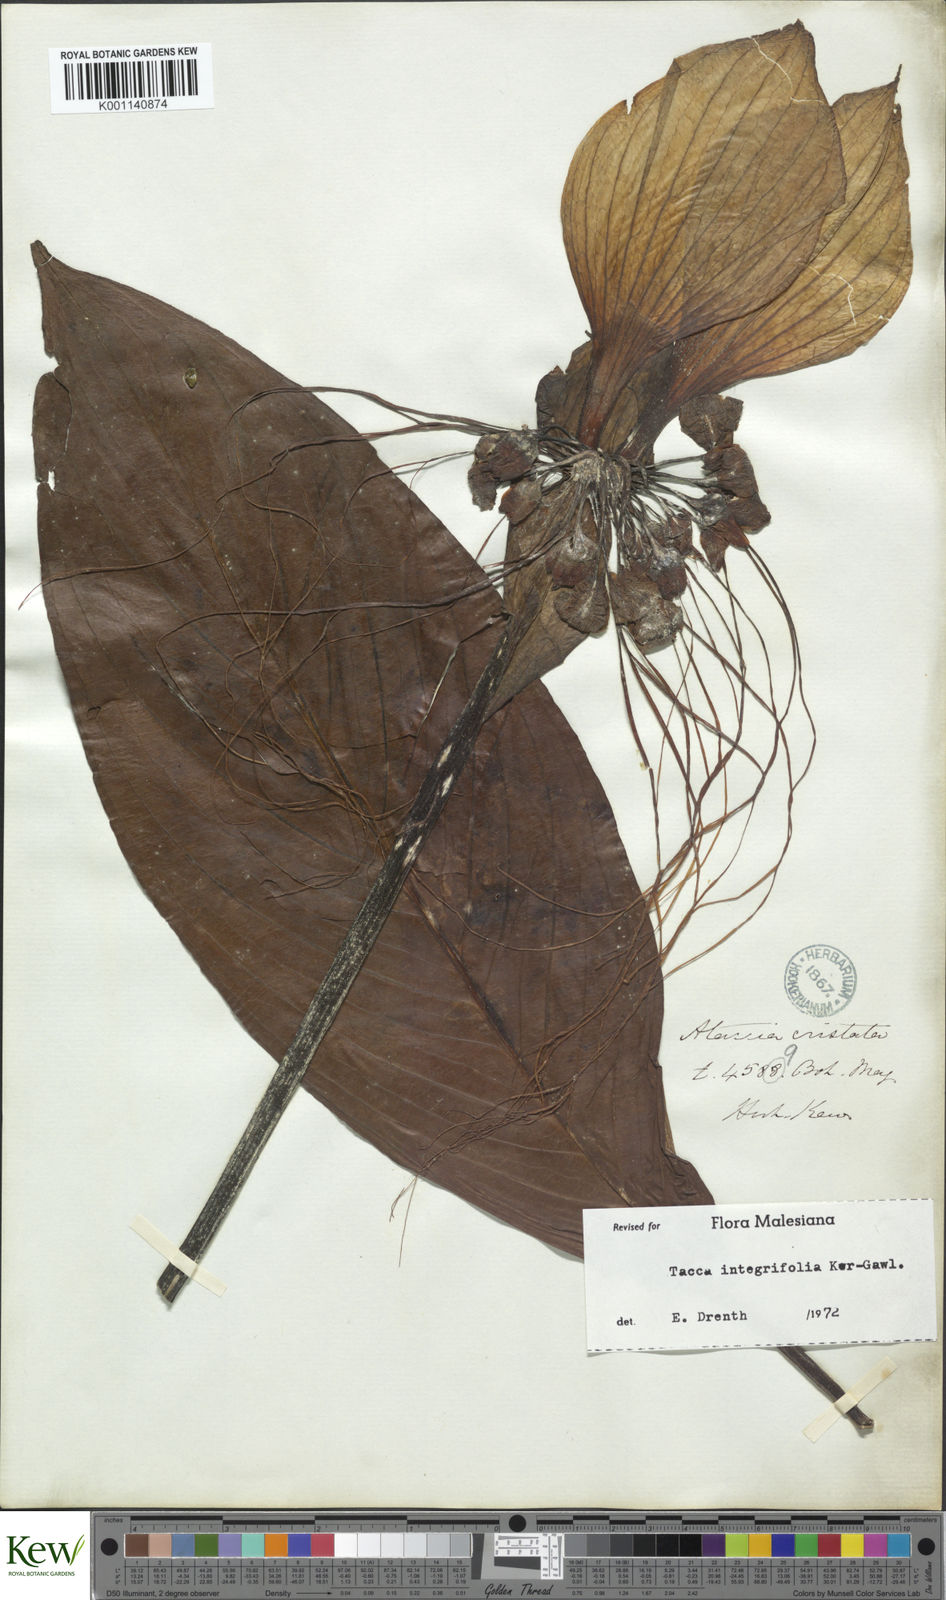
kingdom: Plantae
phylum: Tracheophyta
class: Liliopsida
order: Dioscoreales
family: Dioscoreaceae
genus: Tacca
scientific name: Tacca integrifolia
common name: Batplant
